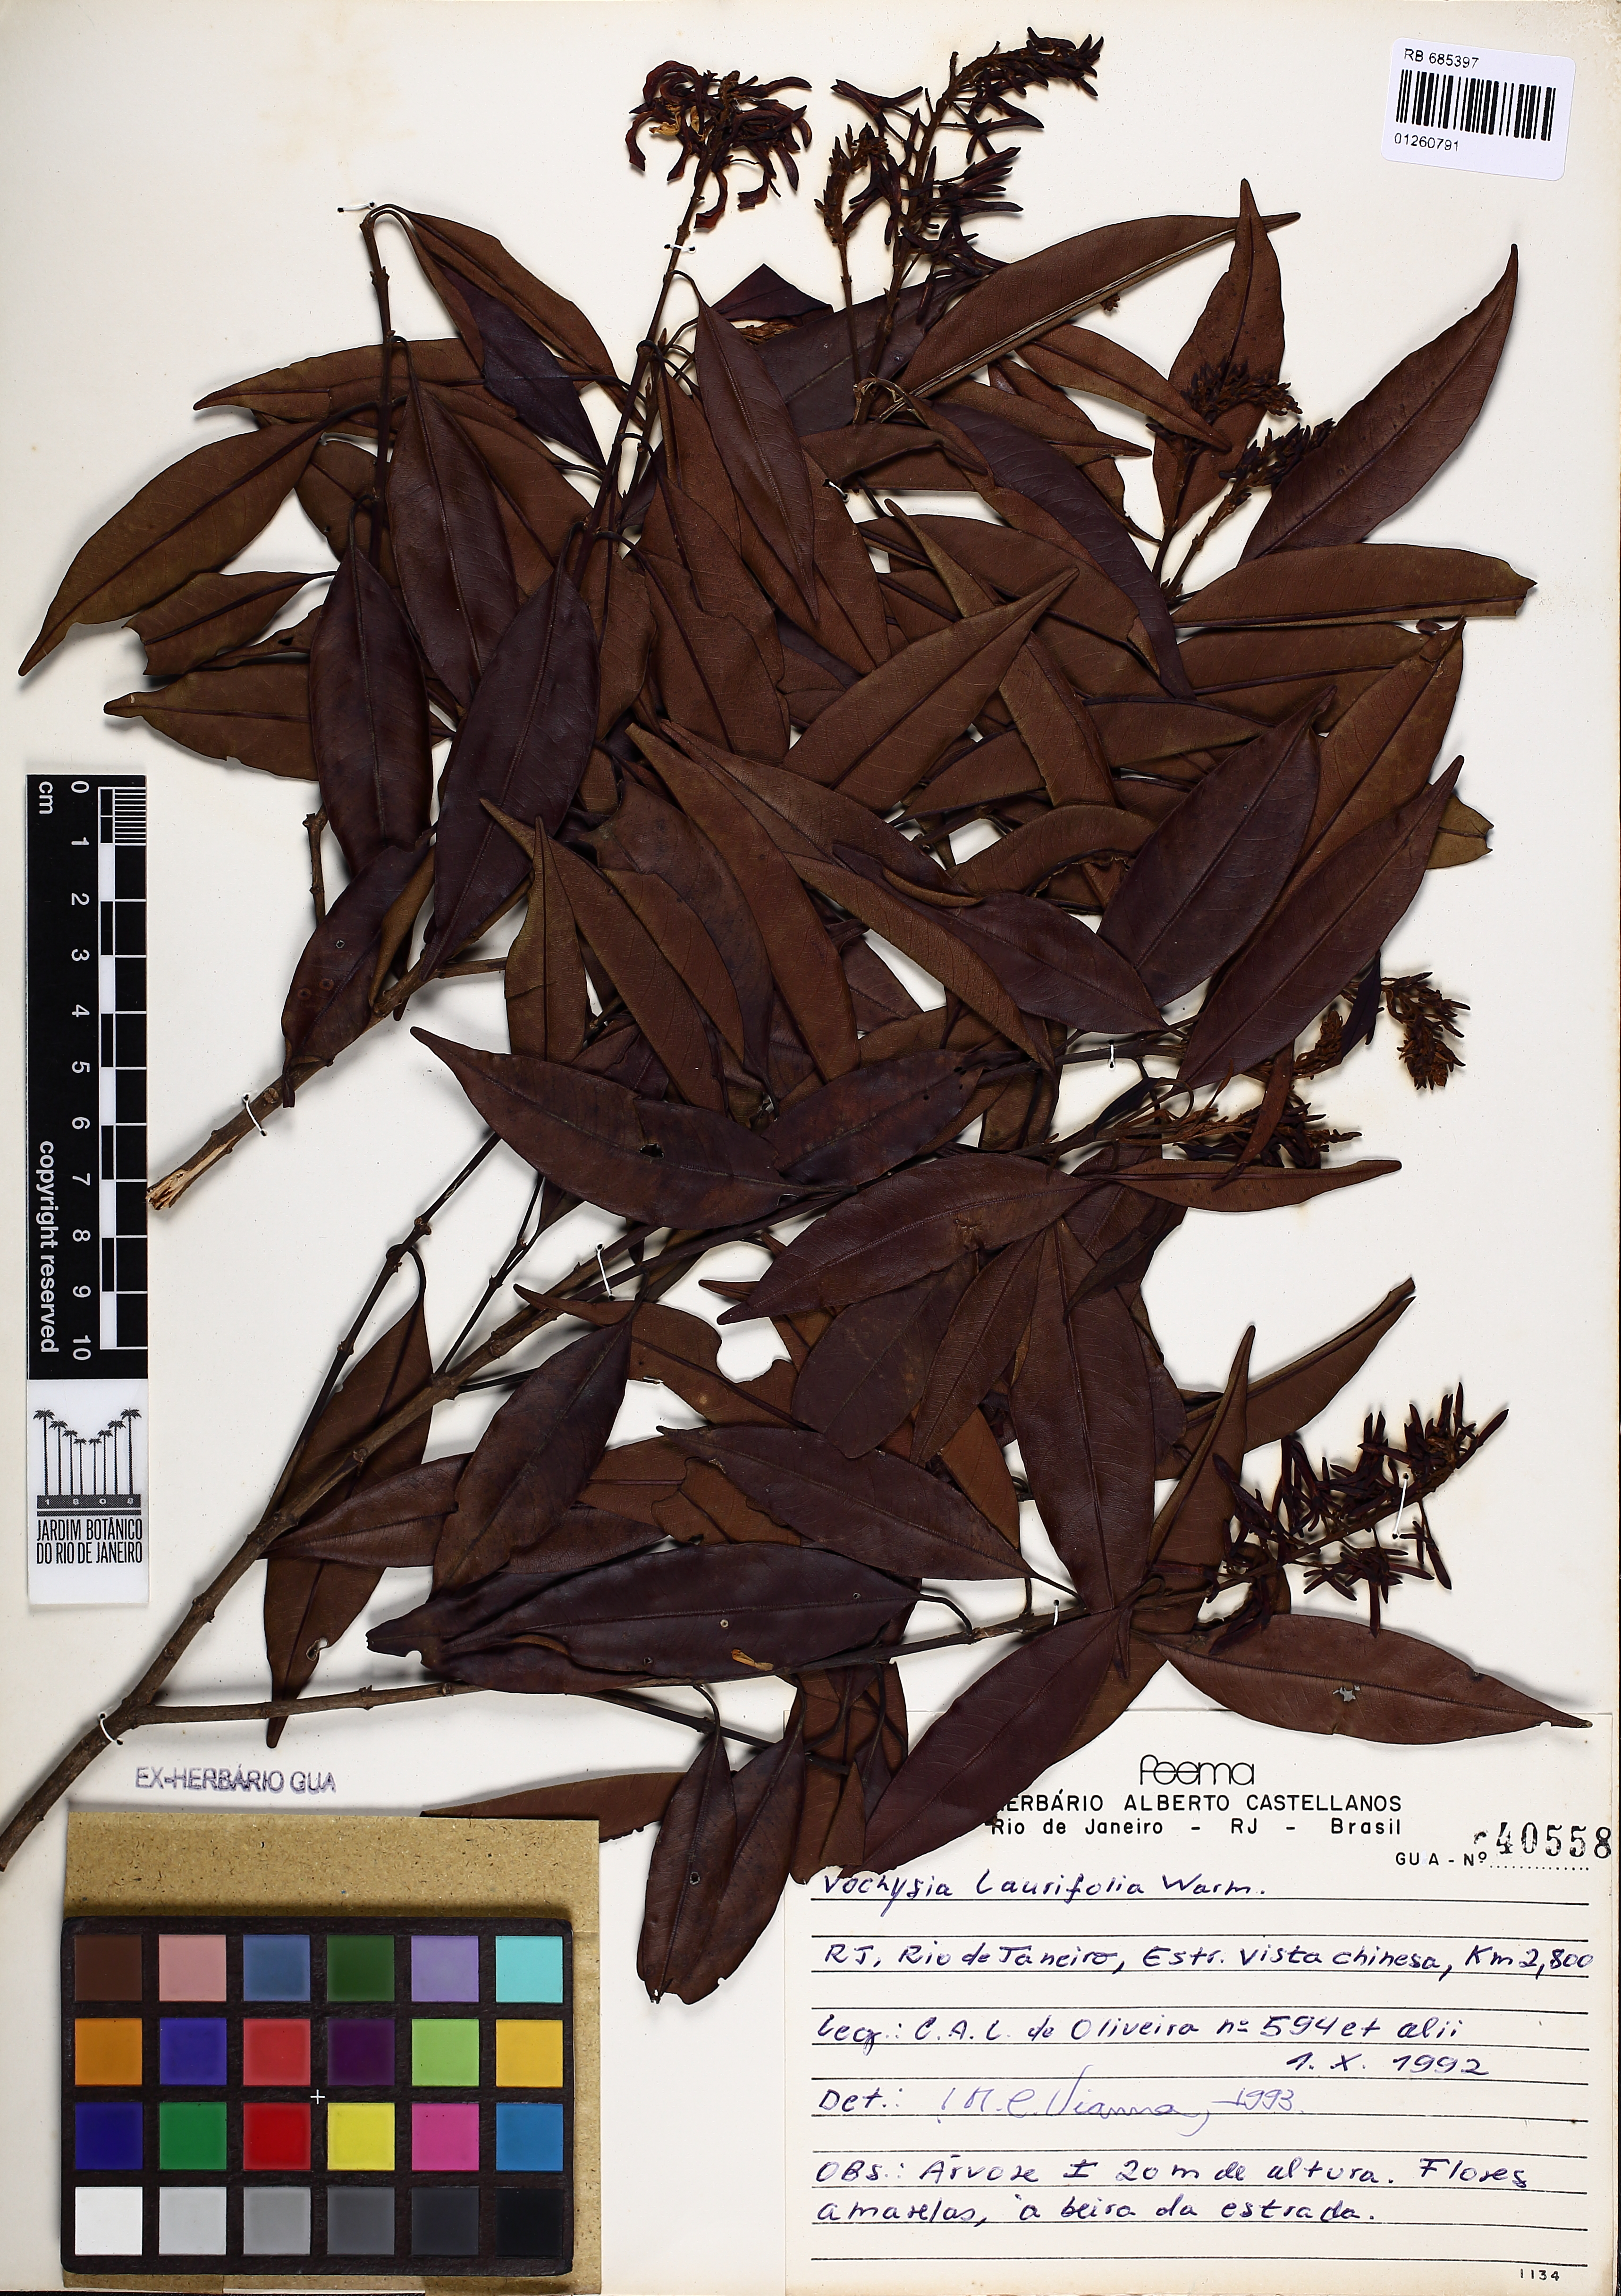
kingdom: Plantae
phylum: Tracheophyta
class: Magnoliopsida
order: Myrtales
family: Vochysiaceae
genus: Vochysia
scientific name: Vochysia laurifolia
